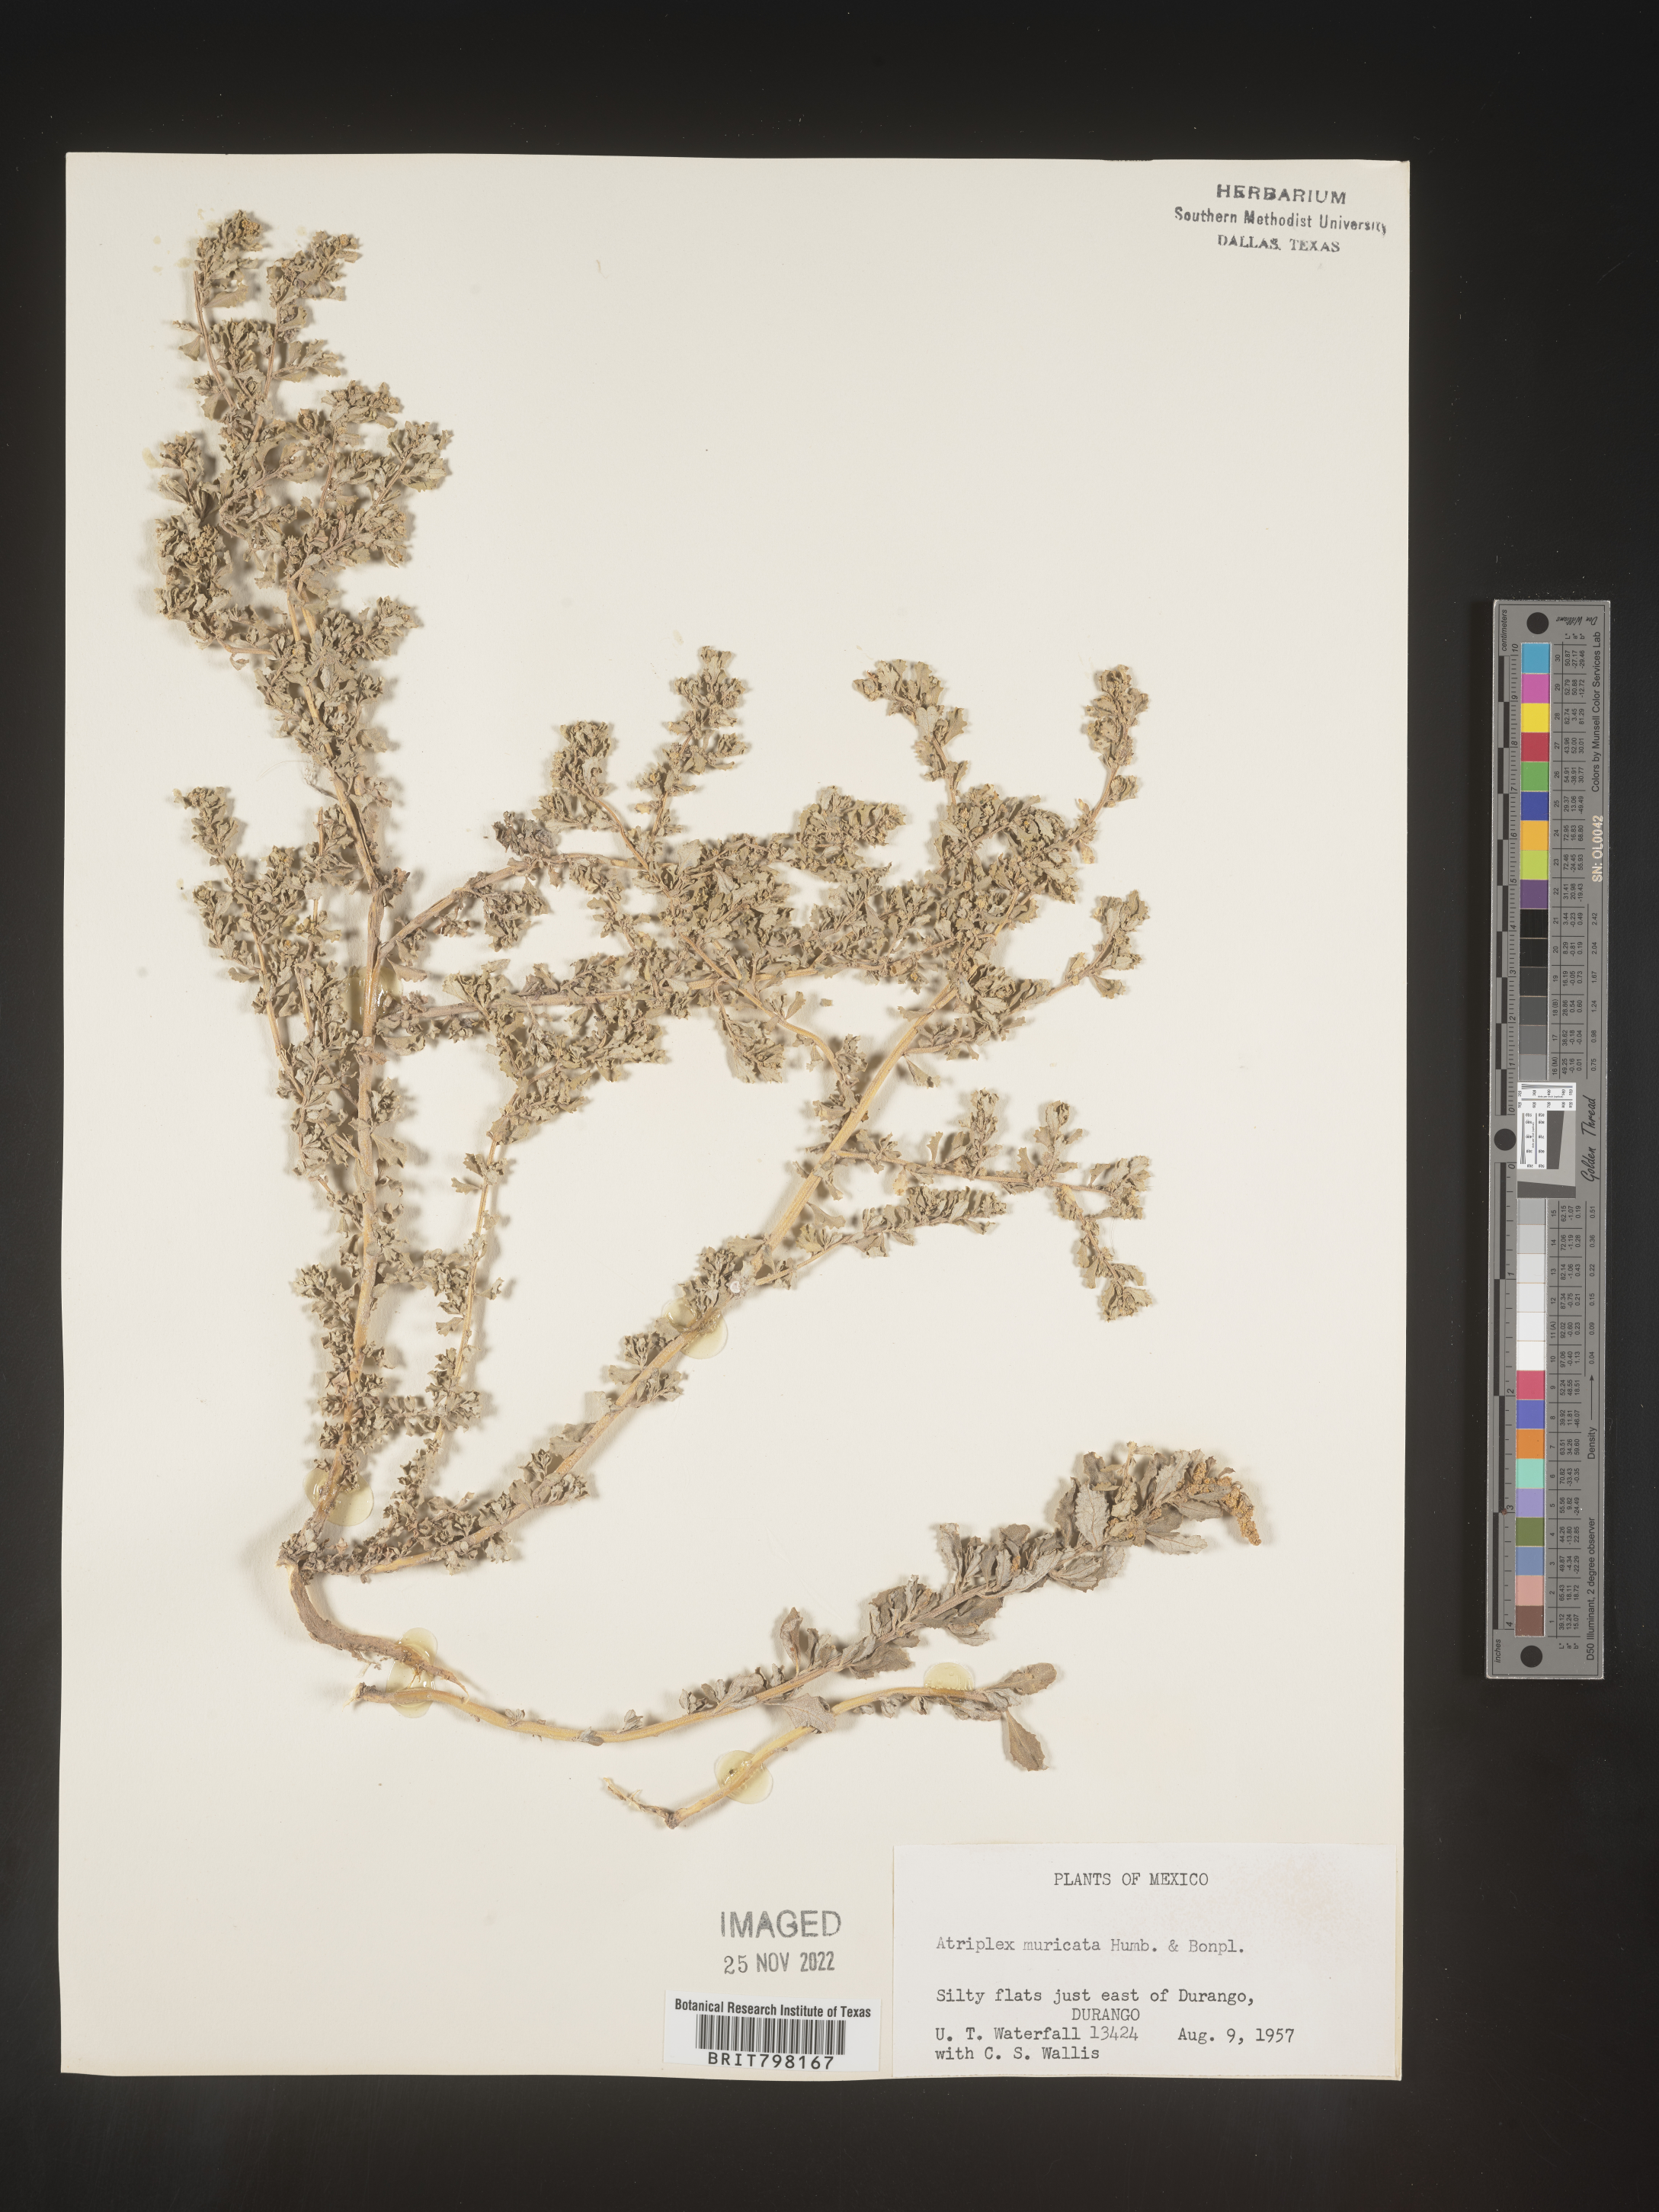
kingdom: Plantae
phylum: Tracheophyta
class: Magnoliopsida
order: Caryophyllales
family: Amaranthaceae
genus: Atriplex
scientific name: Atriplex
